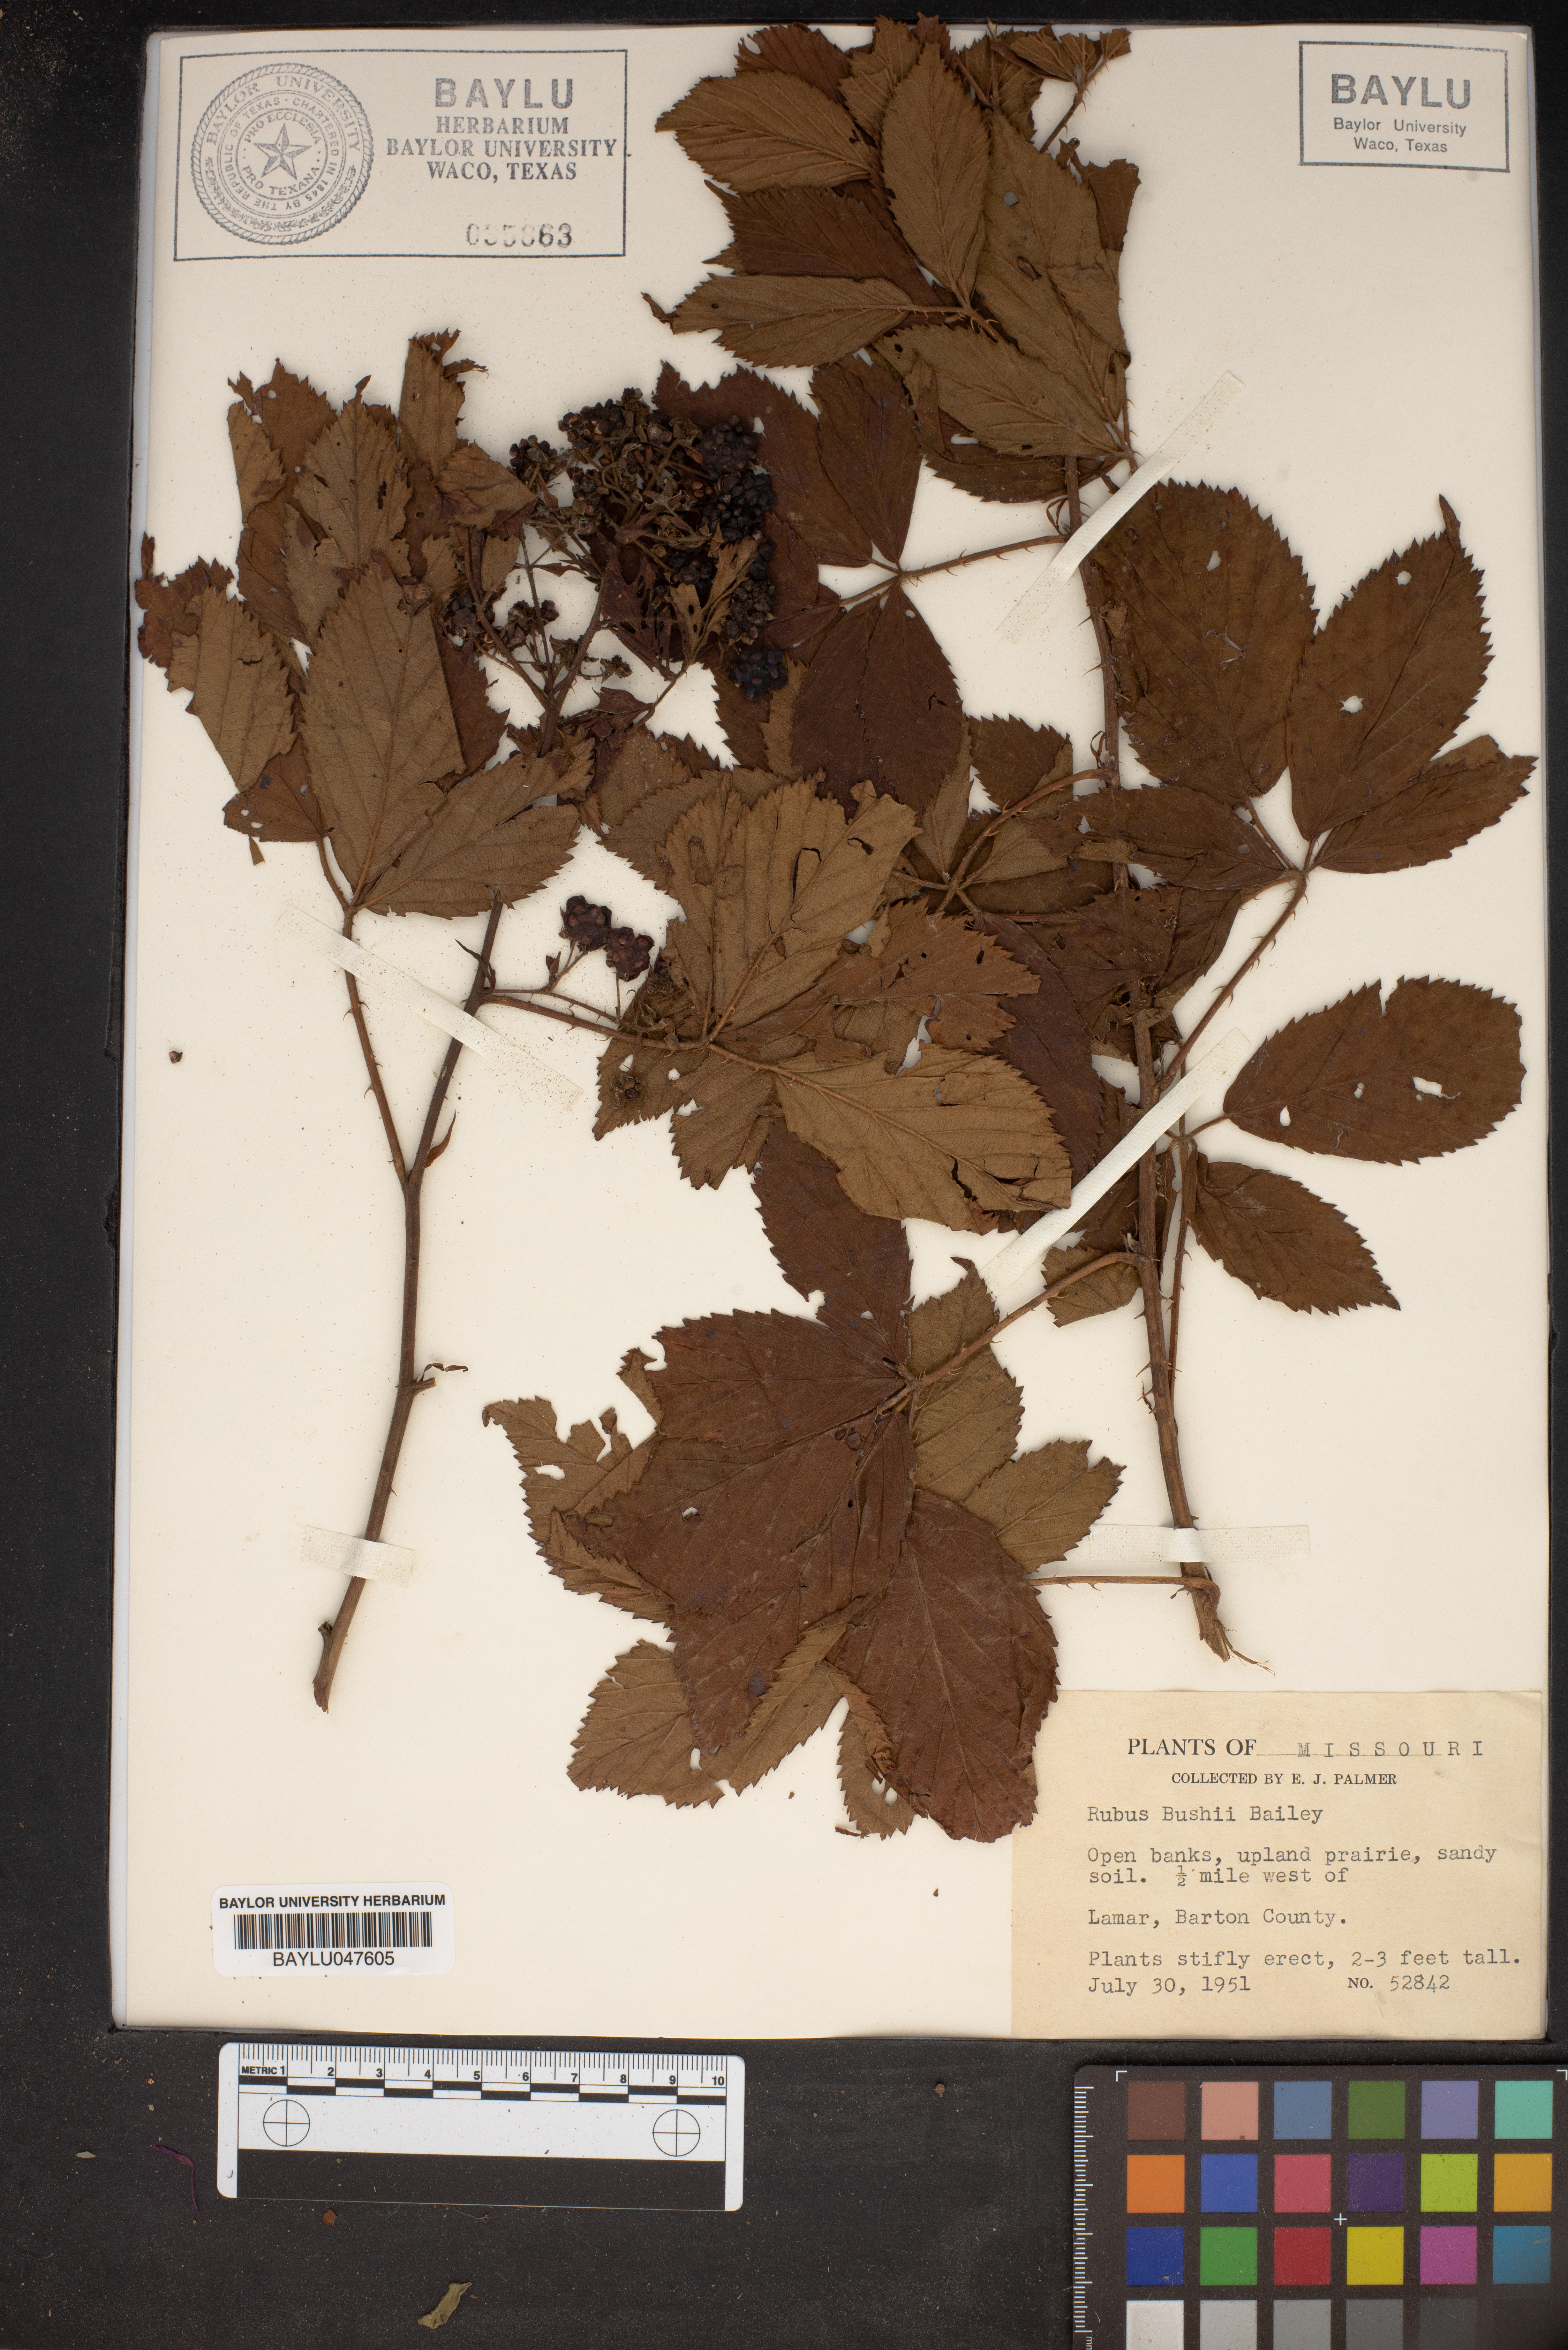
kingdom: Plantae
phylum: Tracheophyta
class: Magnoliopsida
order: Rosales
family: Rosaceae
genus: Rubus
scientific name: Rubus bushii
